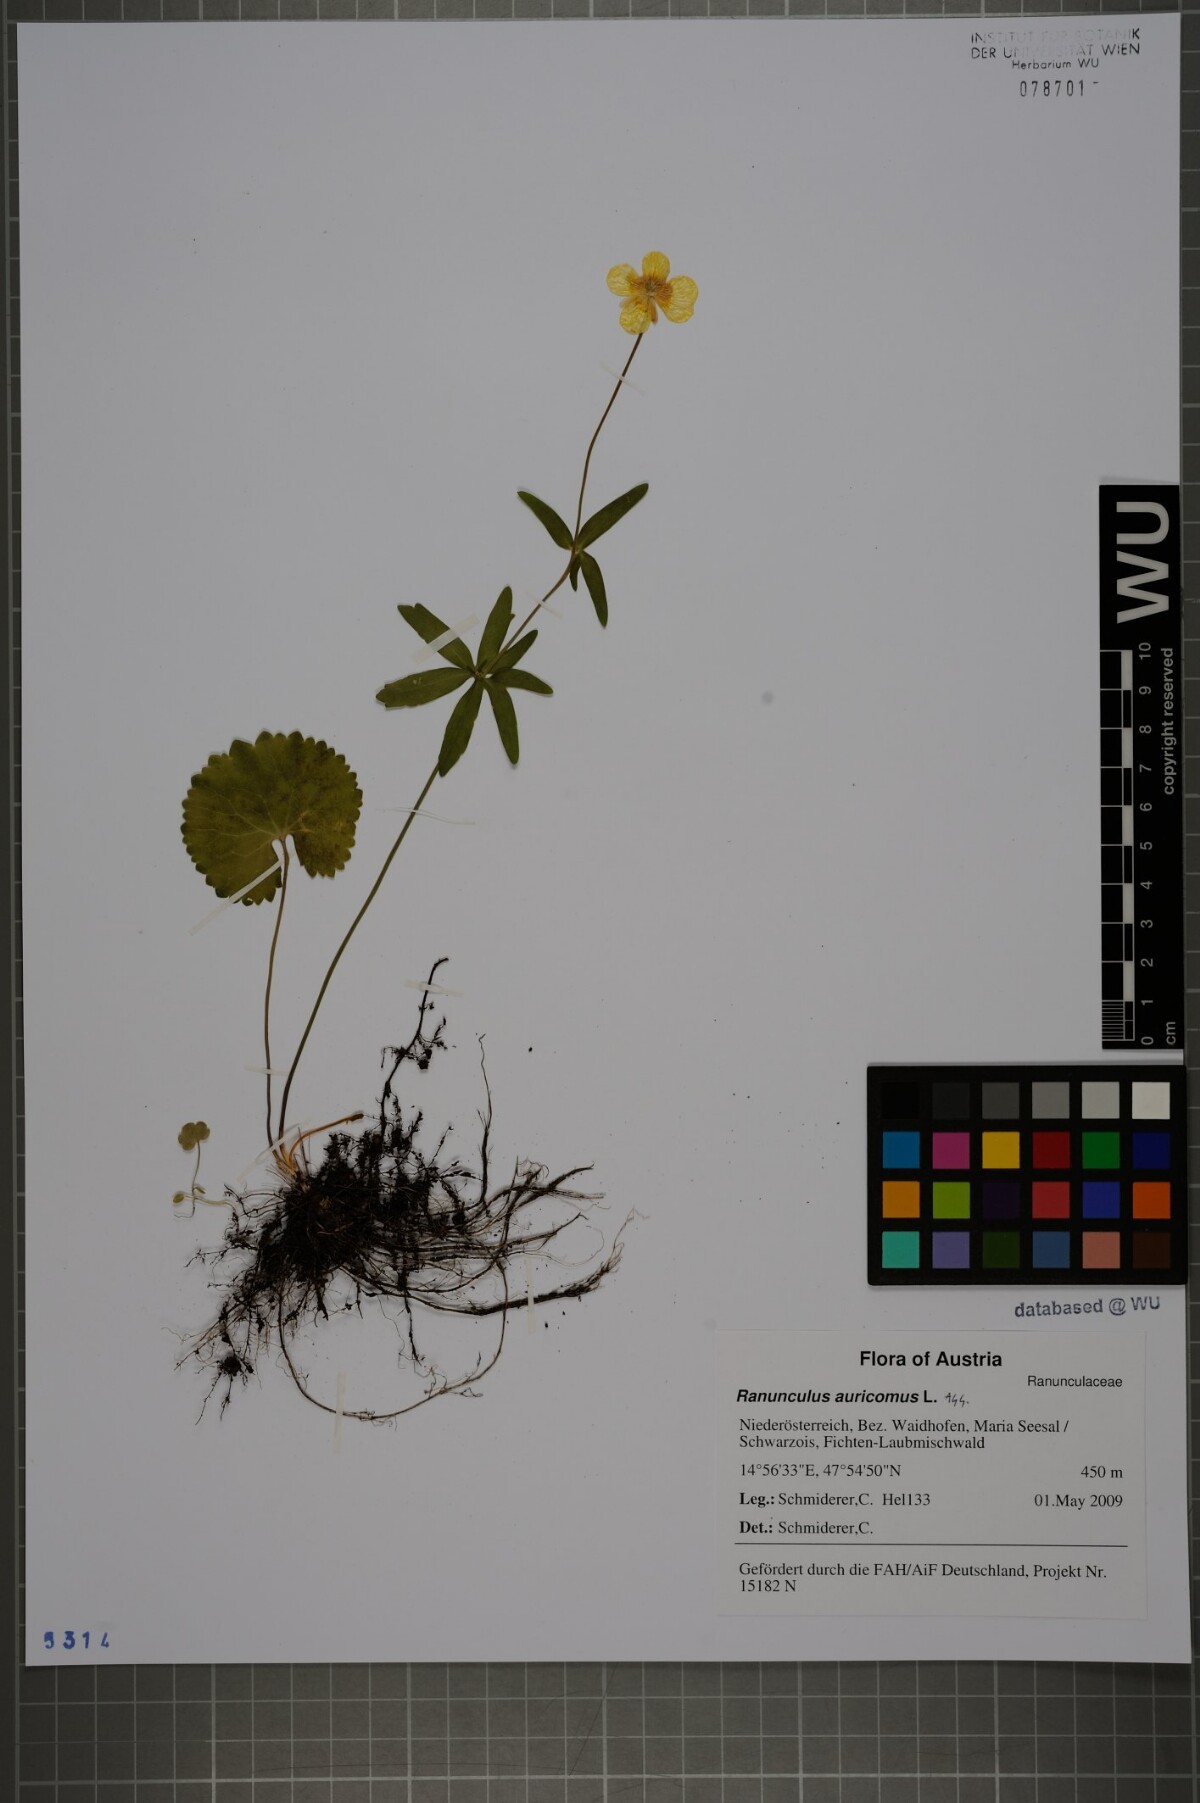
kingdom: Plantae
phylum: Tracheophyta
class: Magnoliopsida
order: Ranunculales
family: Ranunculaceae
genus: Ranunculus
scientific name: Ranunculus auricomus
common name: Goldilocks buttercup
